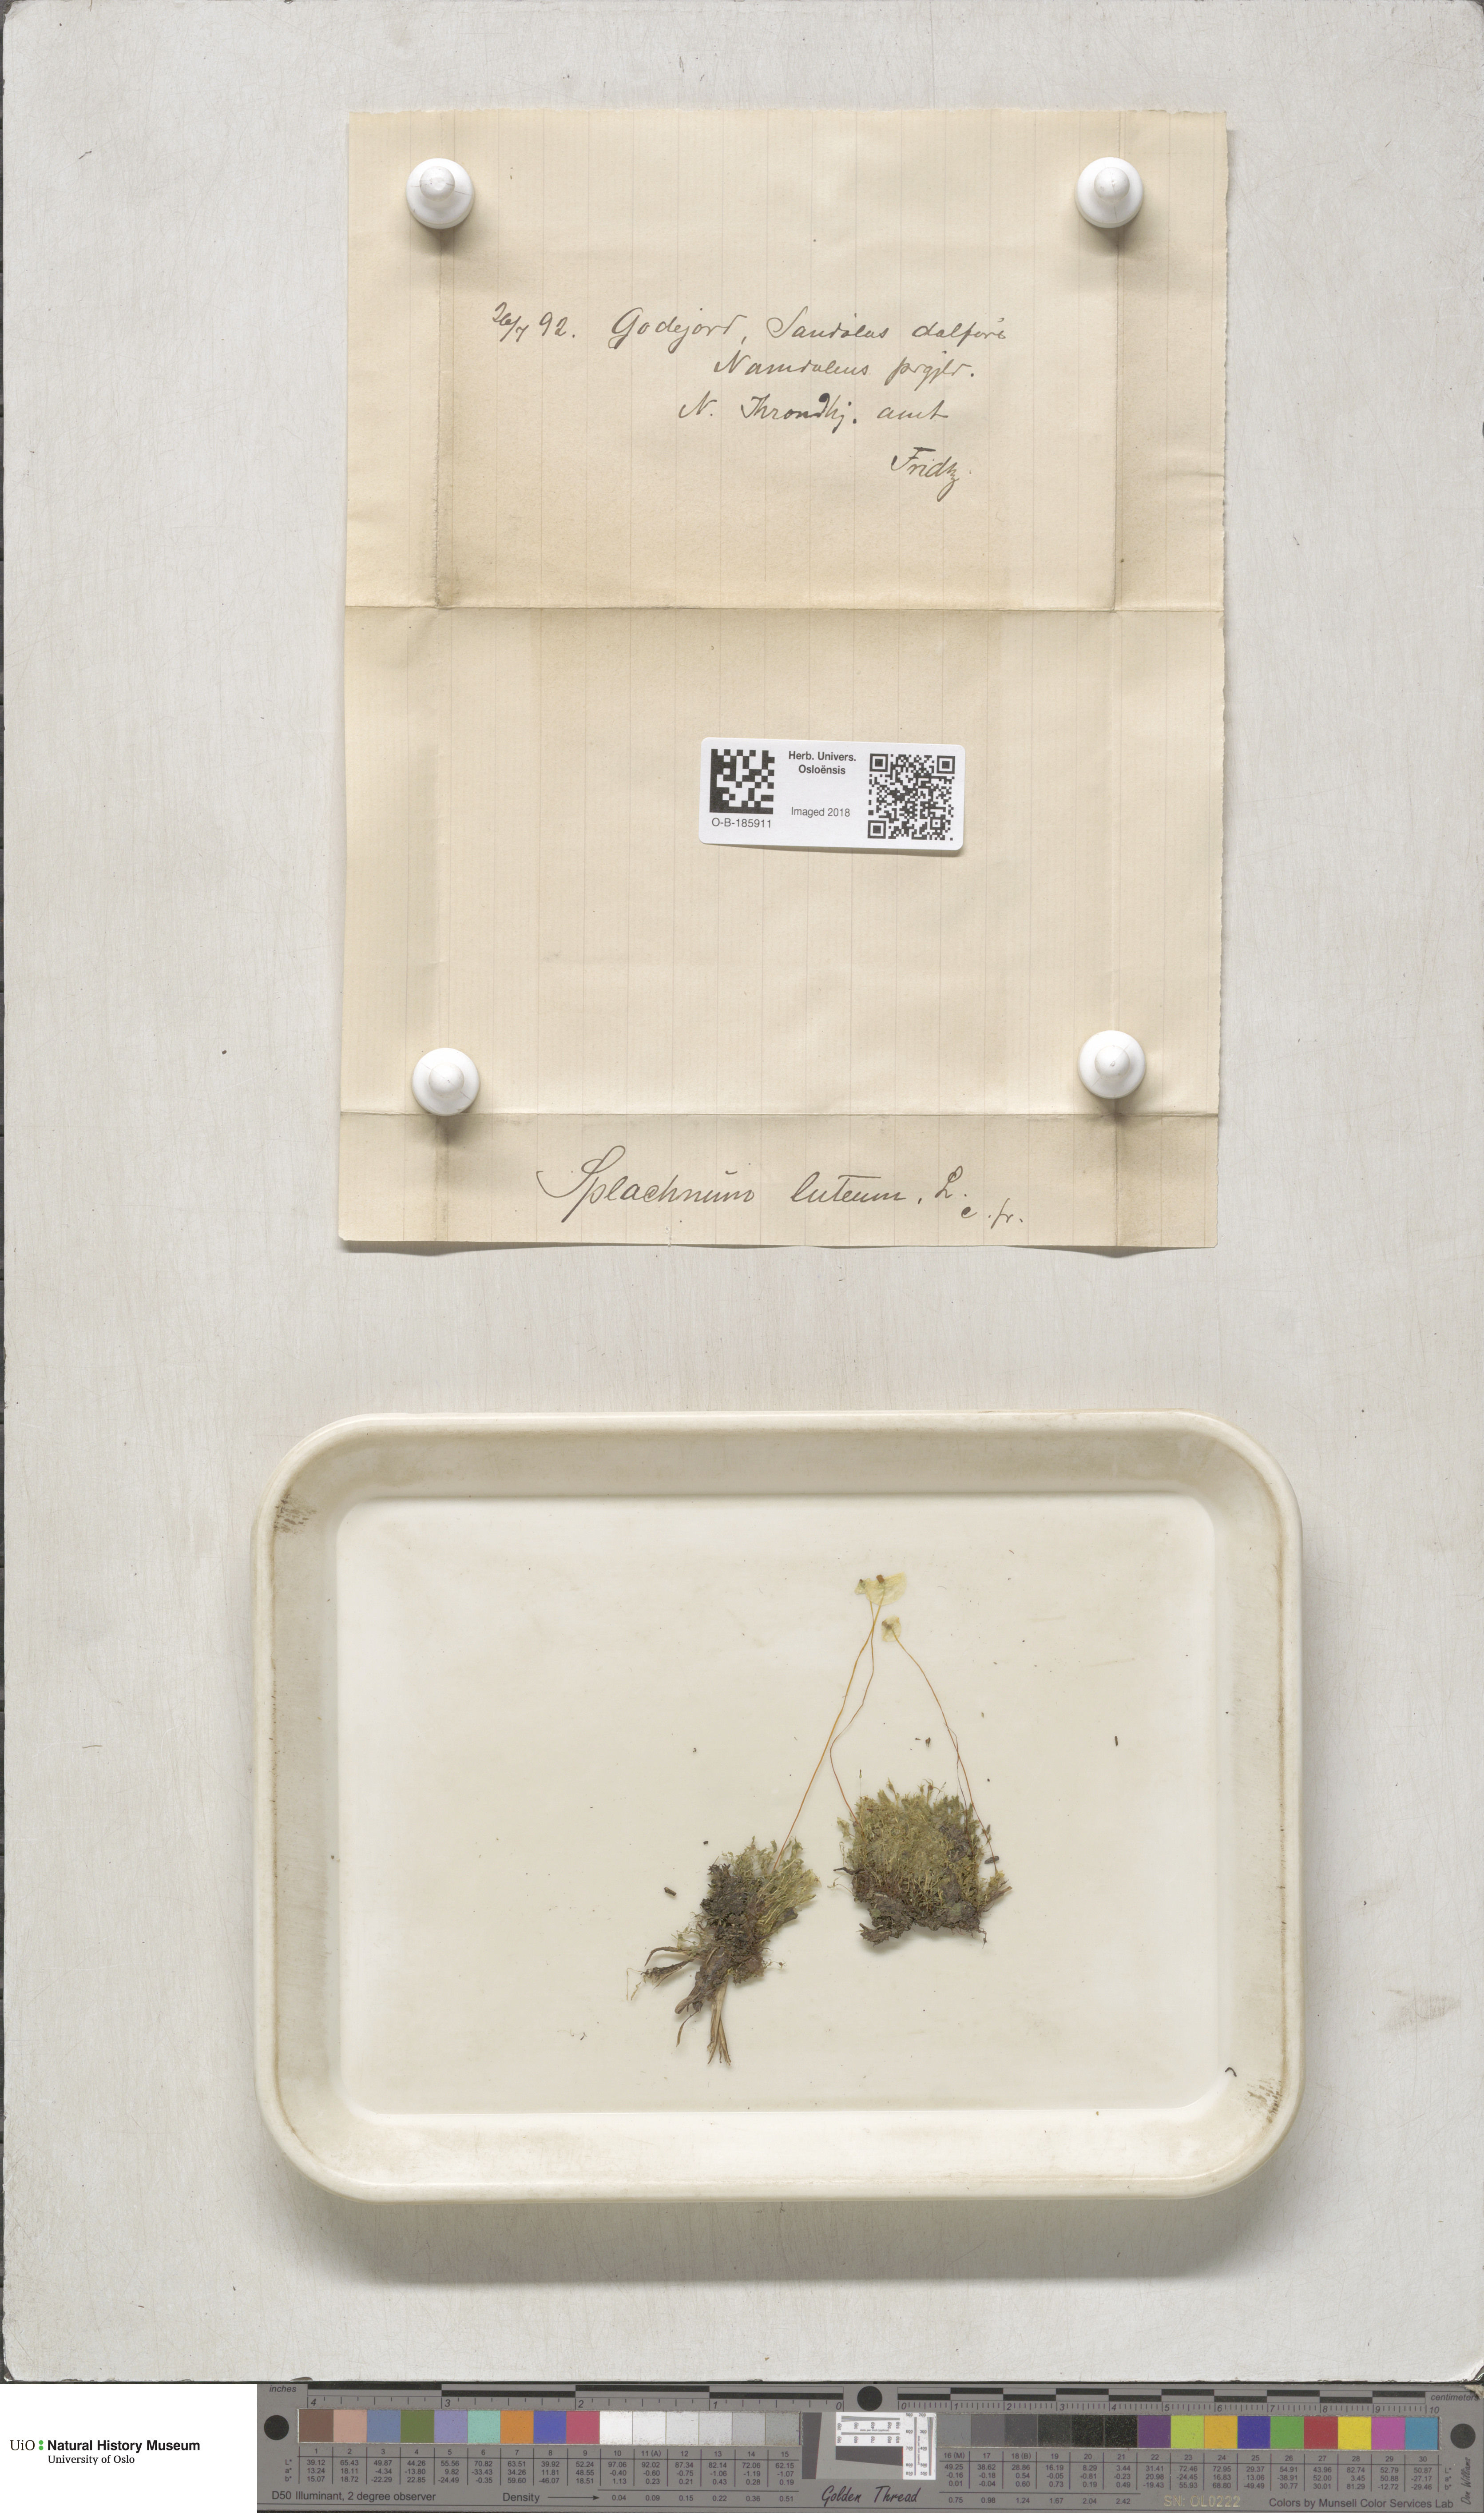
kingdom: Plantae
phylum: Bryophyta
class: Bryopsida
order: Splachnales
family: Splachnaceae
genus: Splachnum
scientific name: Splachnum luteum
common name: Yellow dung moss
